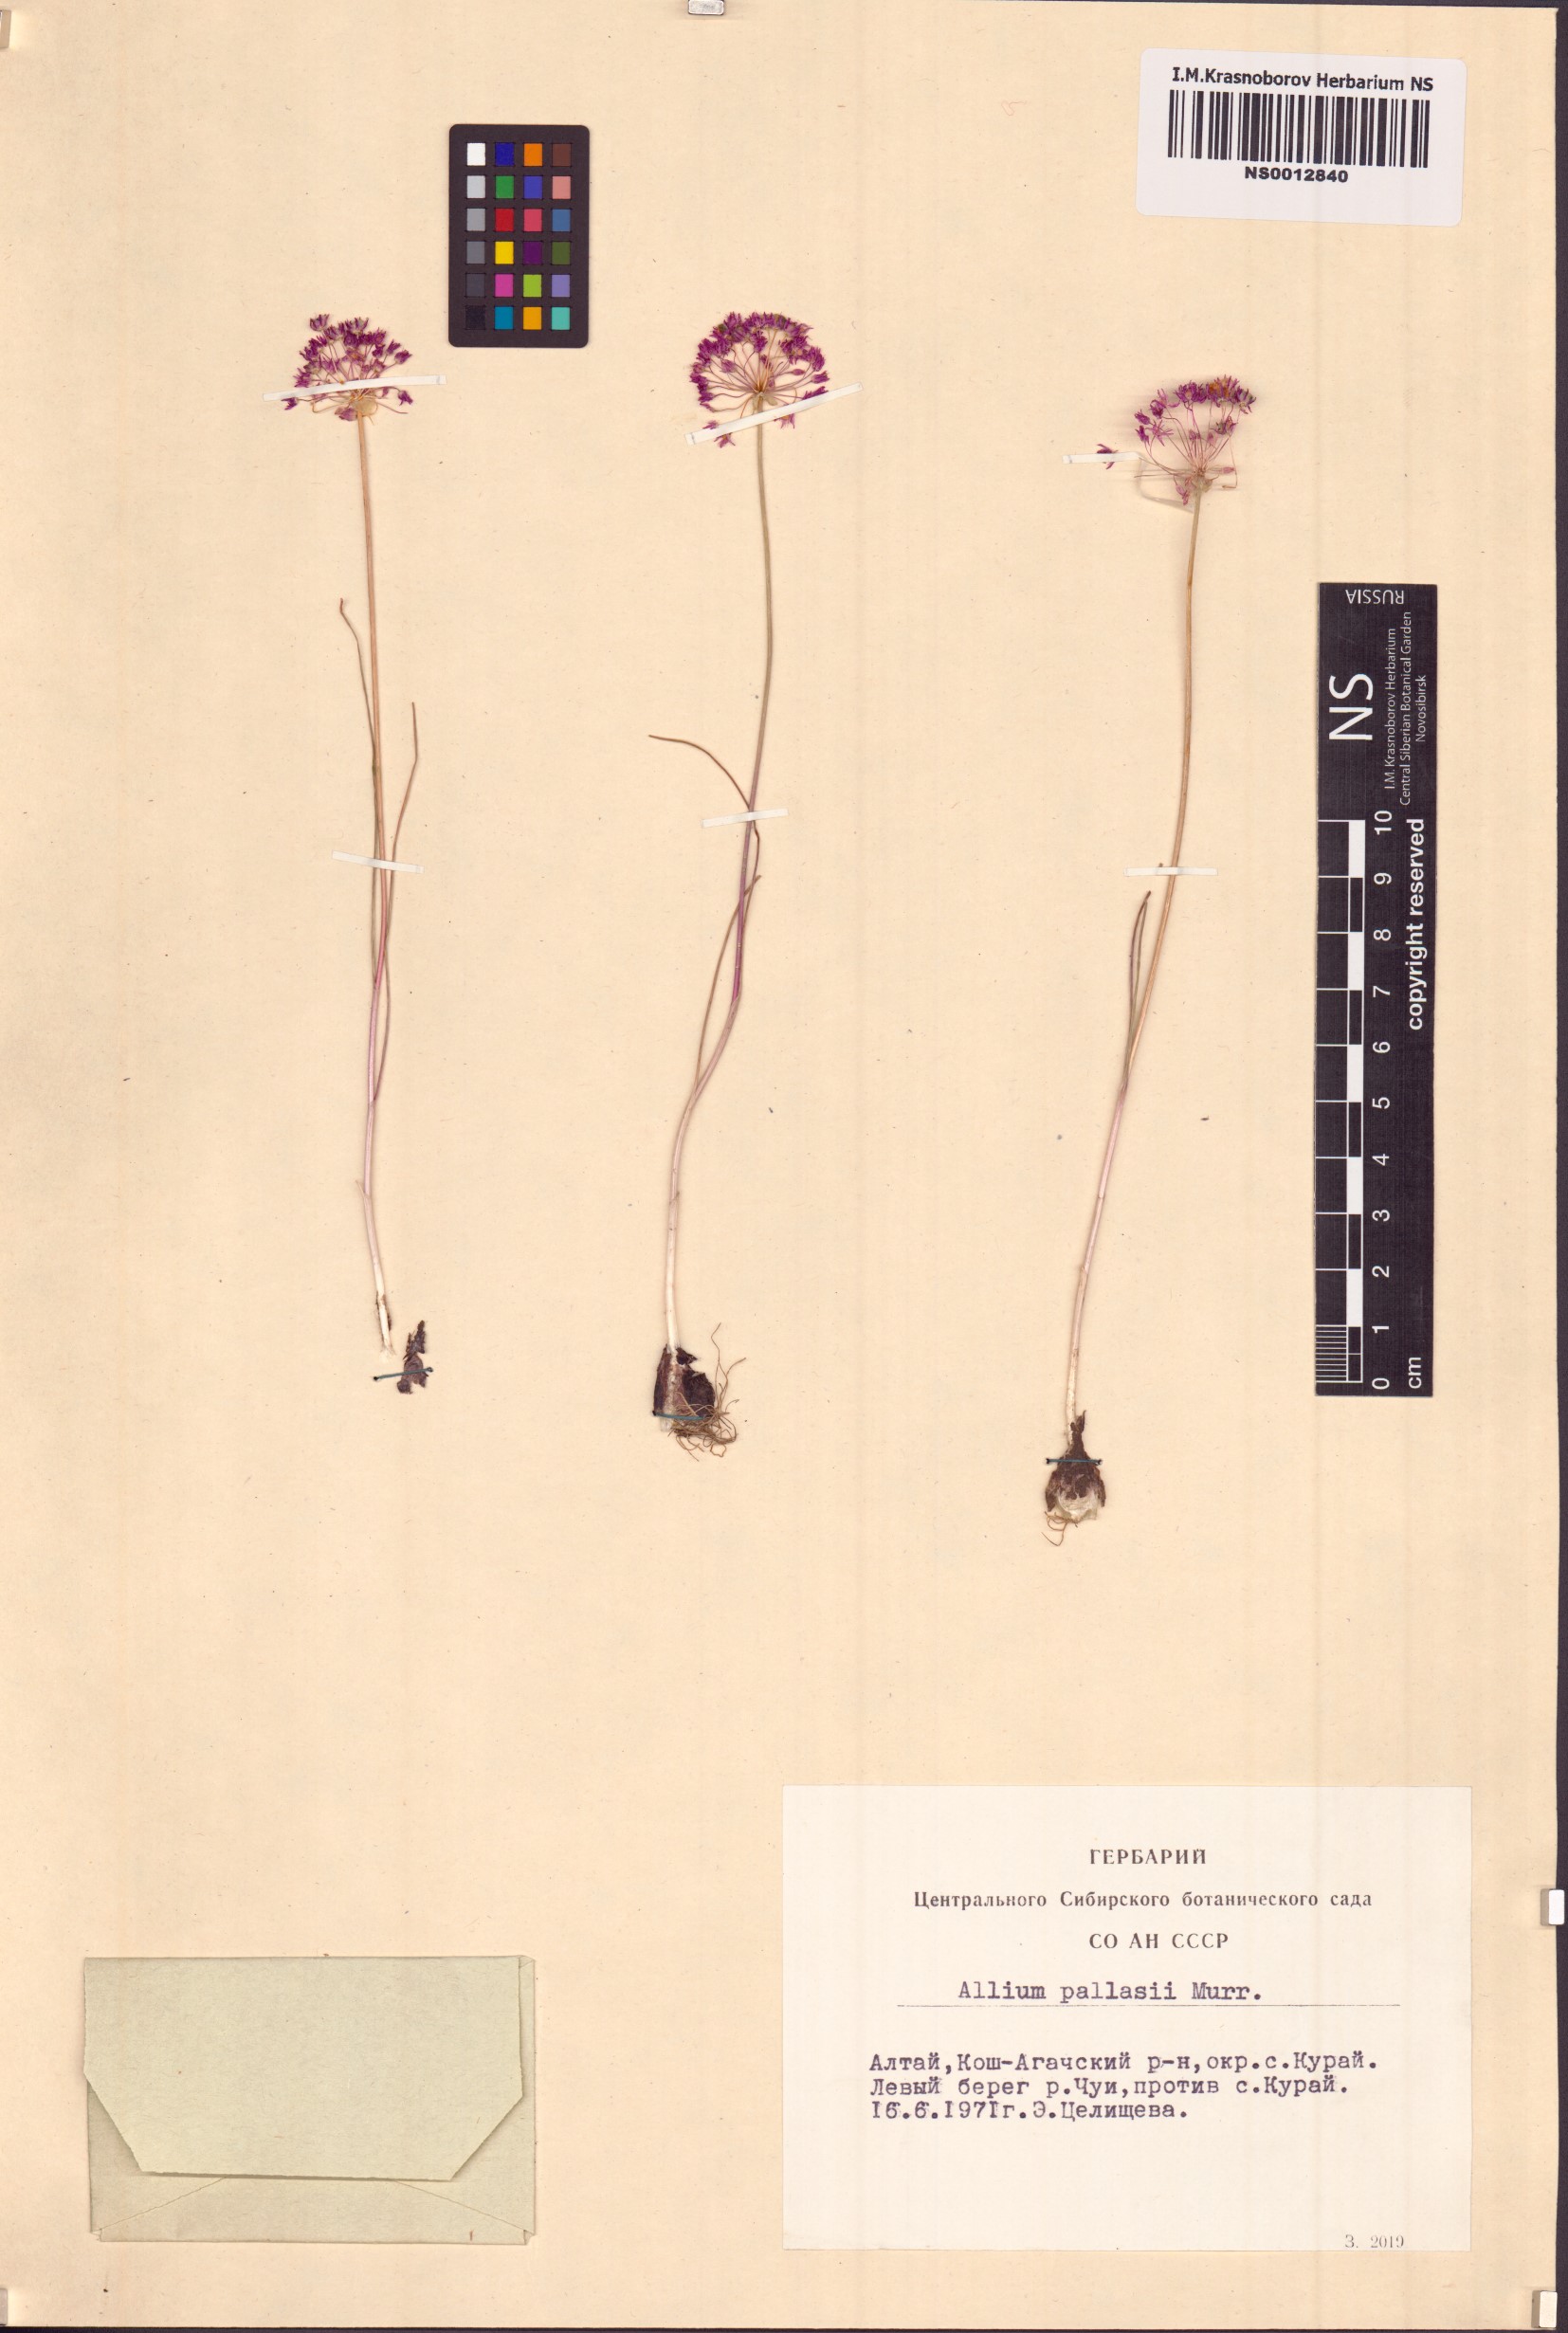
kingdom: Plantae
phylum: Tracheophyta
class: Liliopsida
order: Asparagales
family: Amaryllidaceae
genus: Allium
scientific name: Allium pallasii
